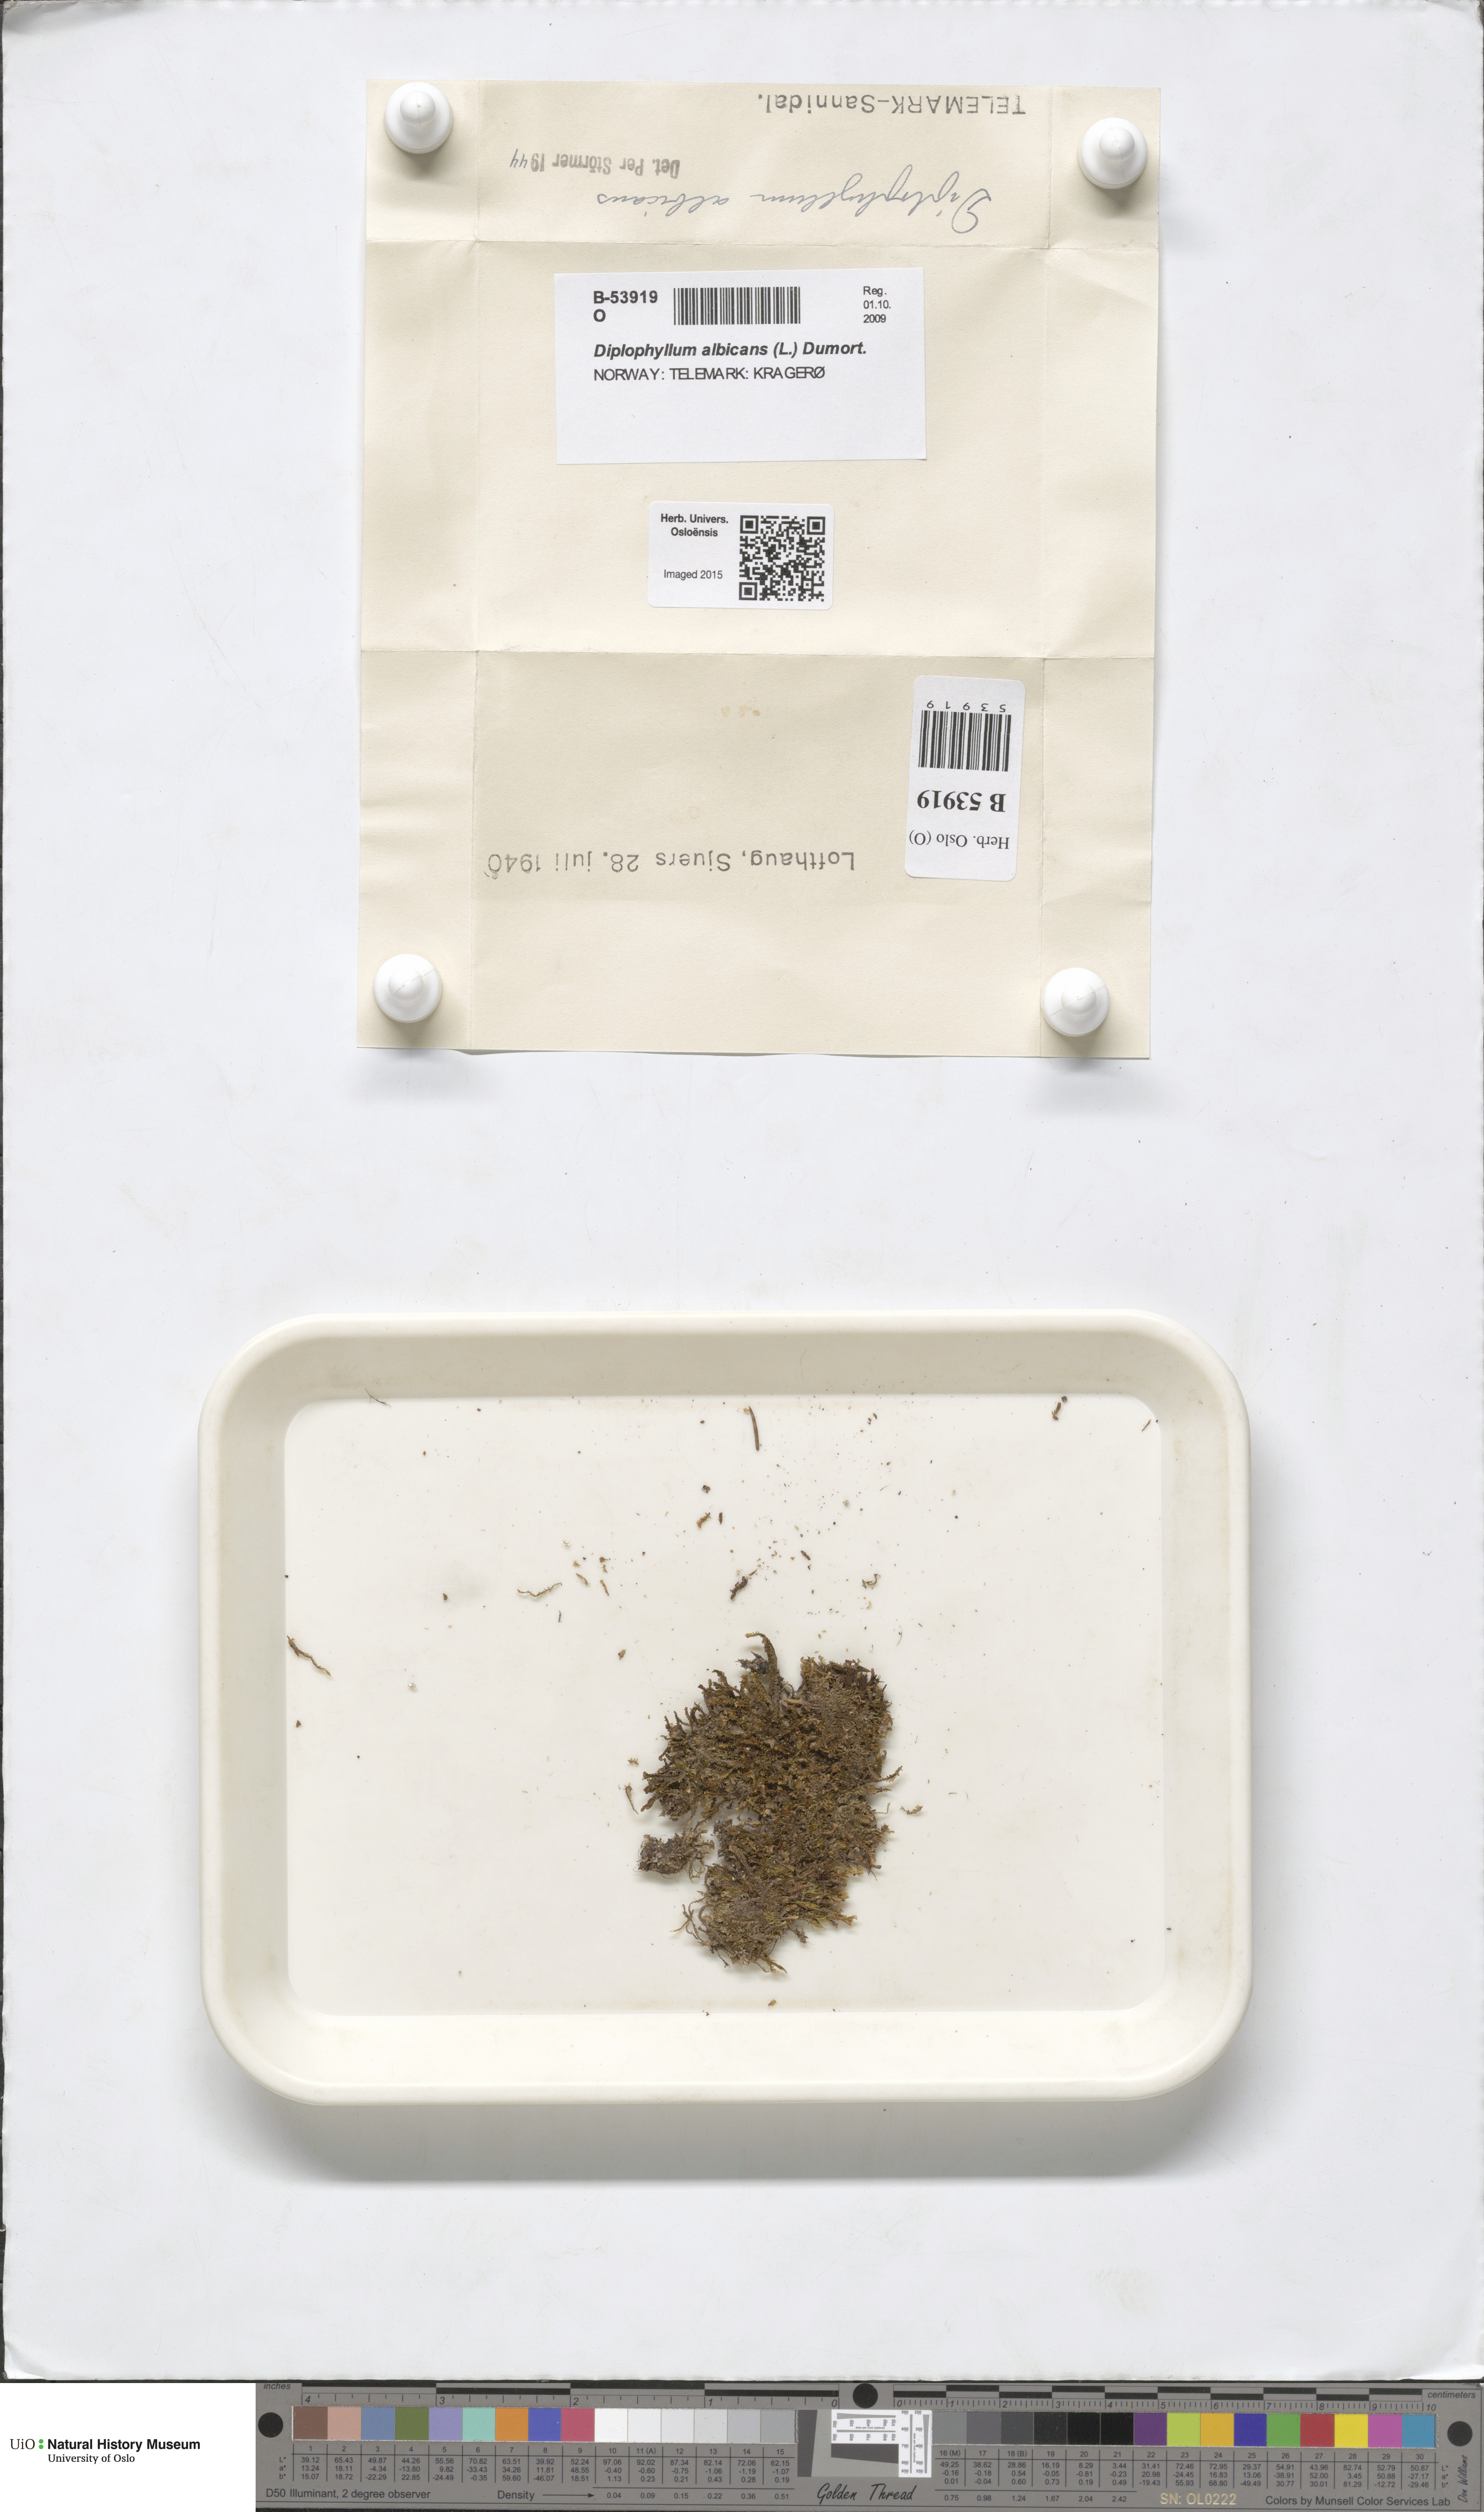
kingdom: Plantae
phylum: Marchantiophyta
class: Jungermanniopsida
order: Jungermanniales
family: Scapaniaceae
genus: Diplophyllum
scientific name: Diplophyllum albicans
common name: White earwort
